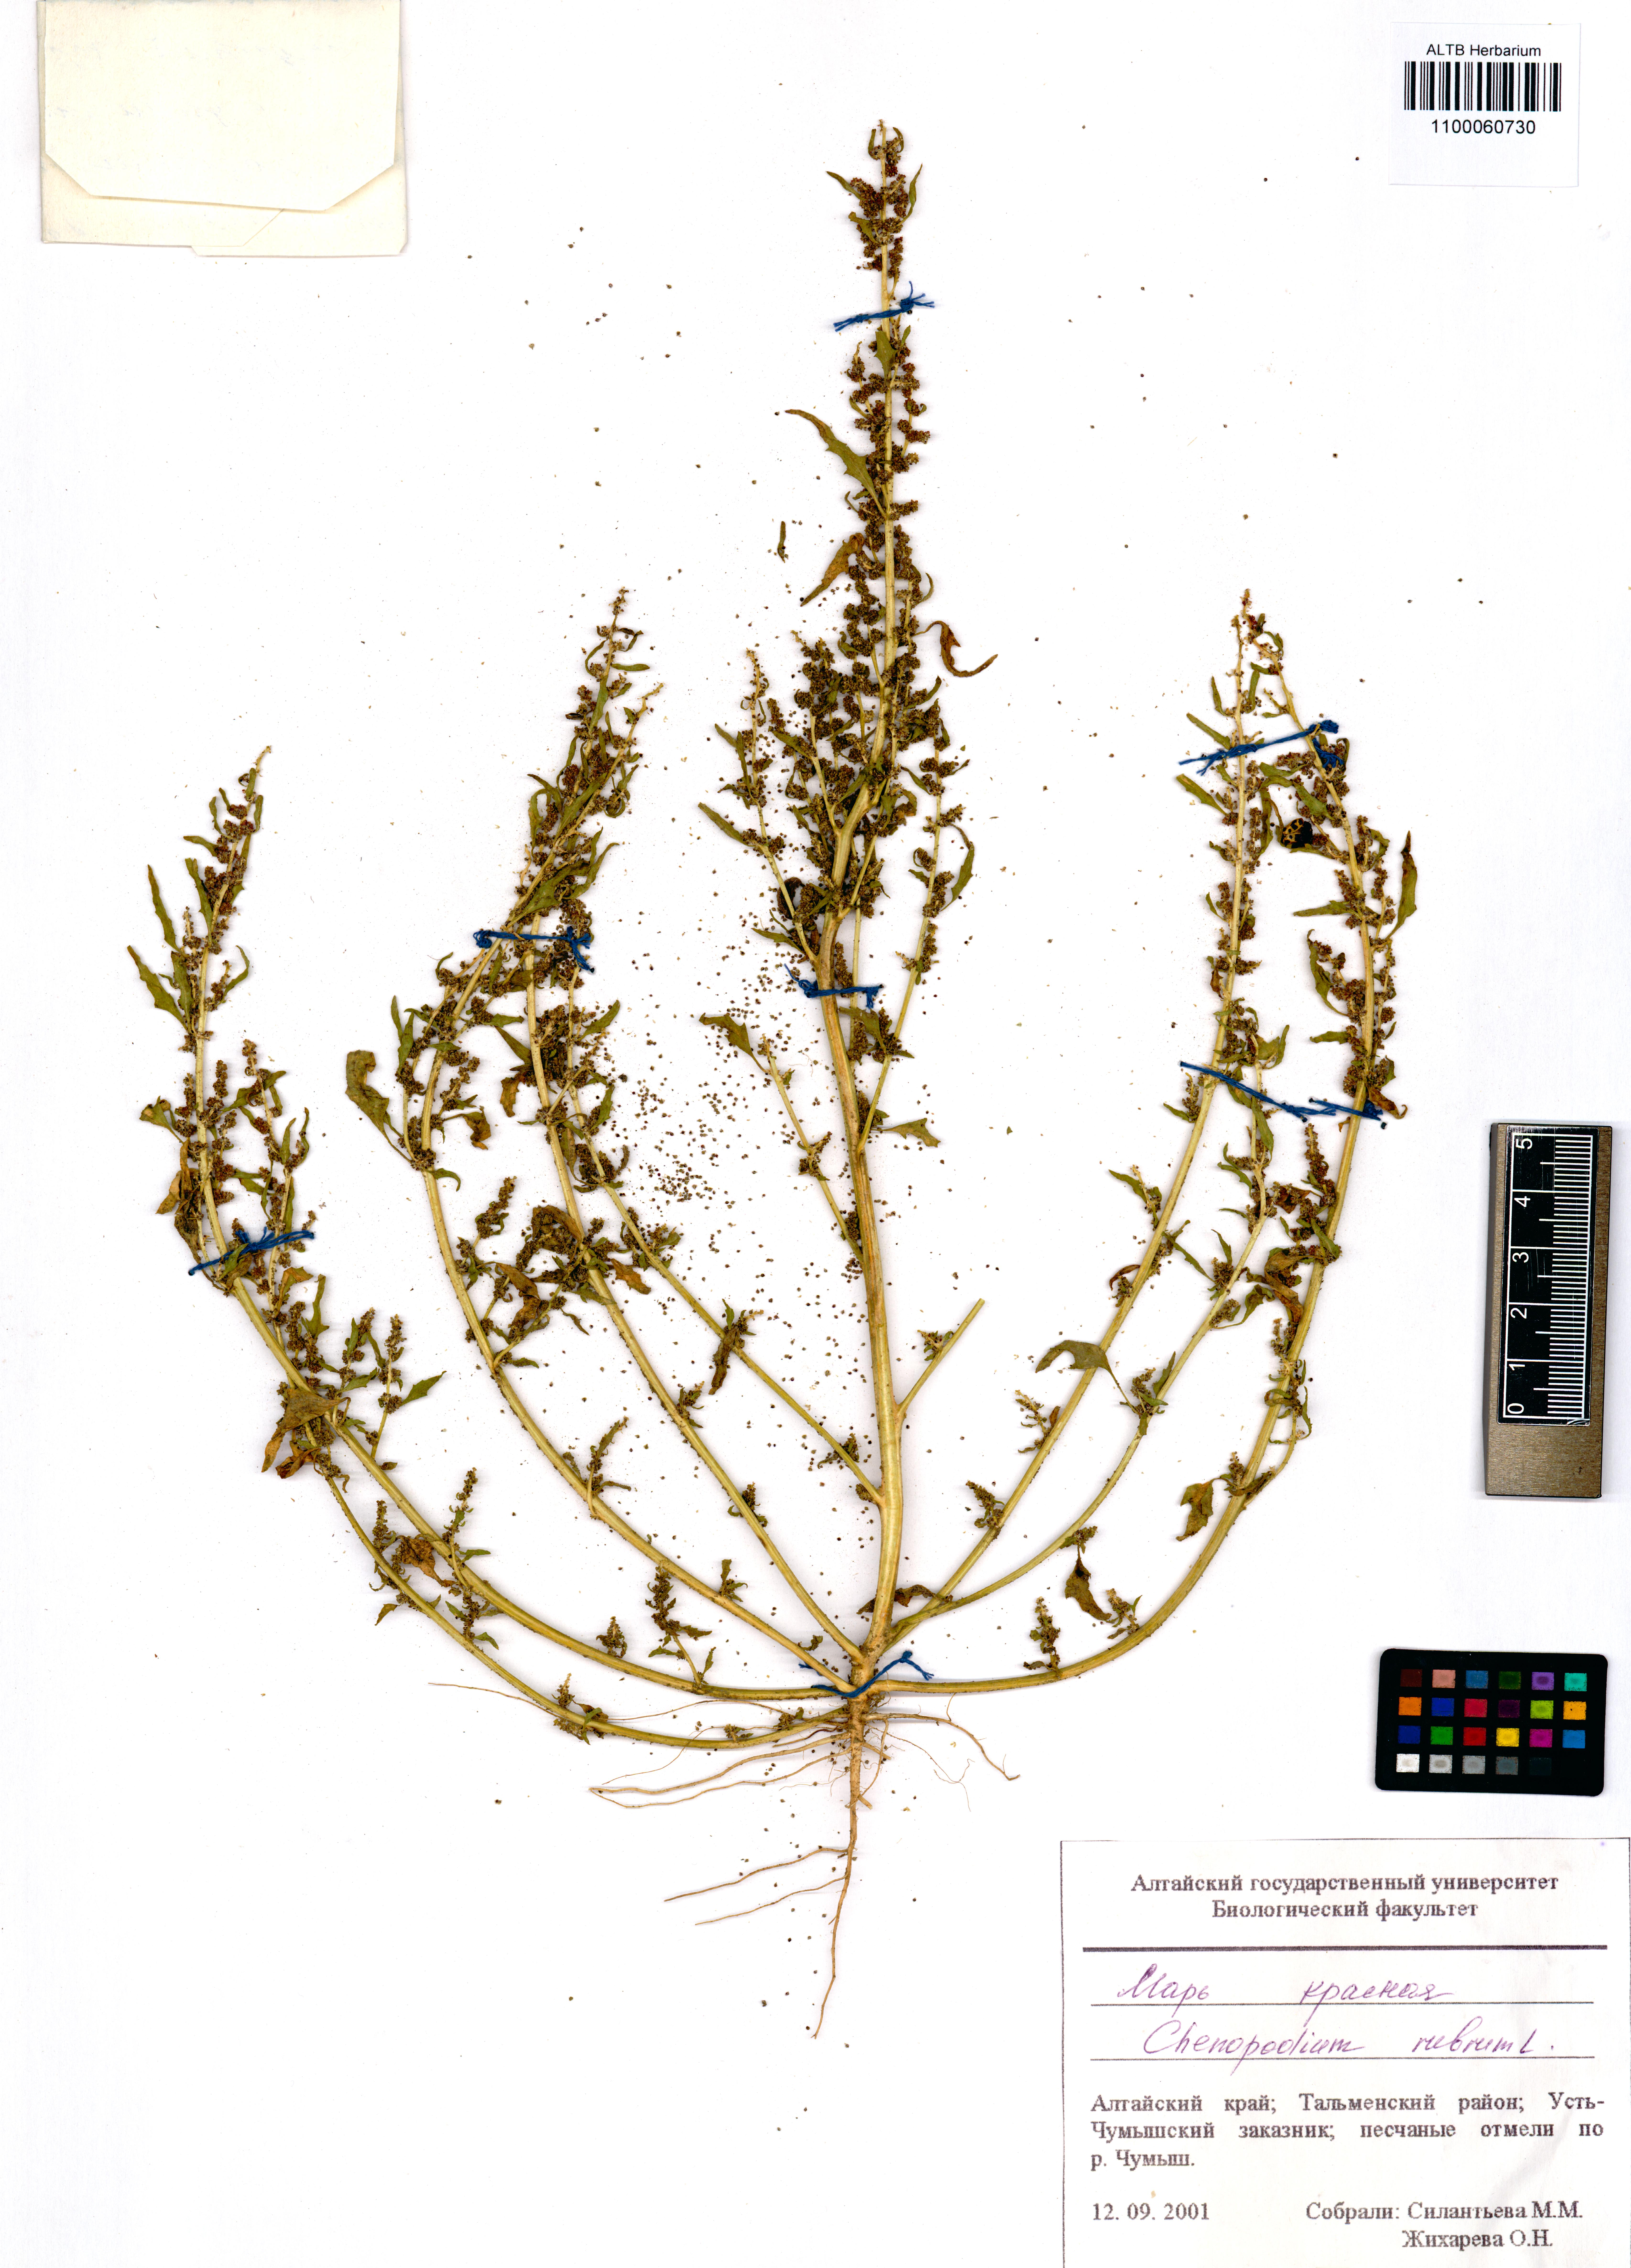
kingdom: Plantae
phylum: Tracheophyta
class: Magnoliopsida
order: Caryophyllales
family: Amaranthaceae
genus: Oxybasis
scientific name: Oxybasis rubra
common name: Red goosefoot
